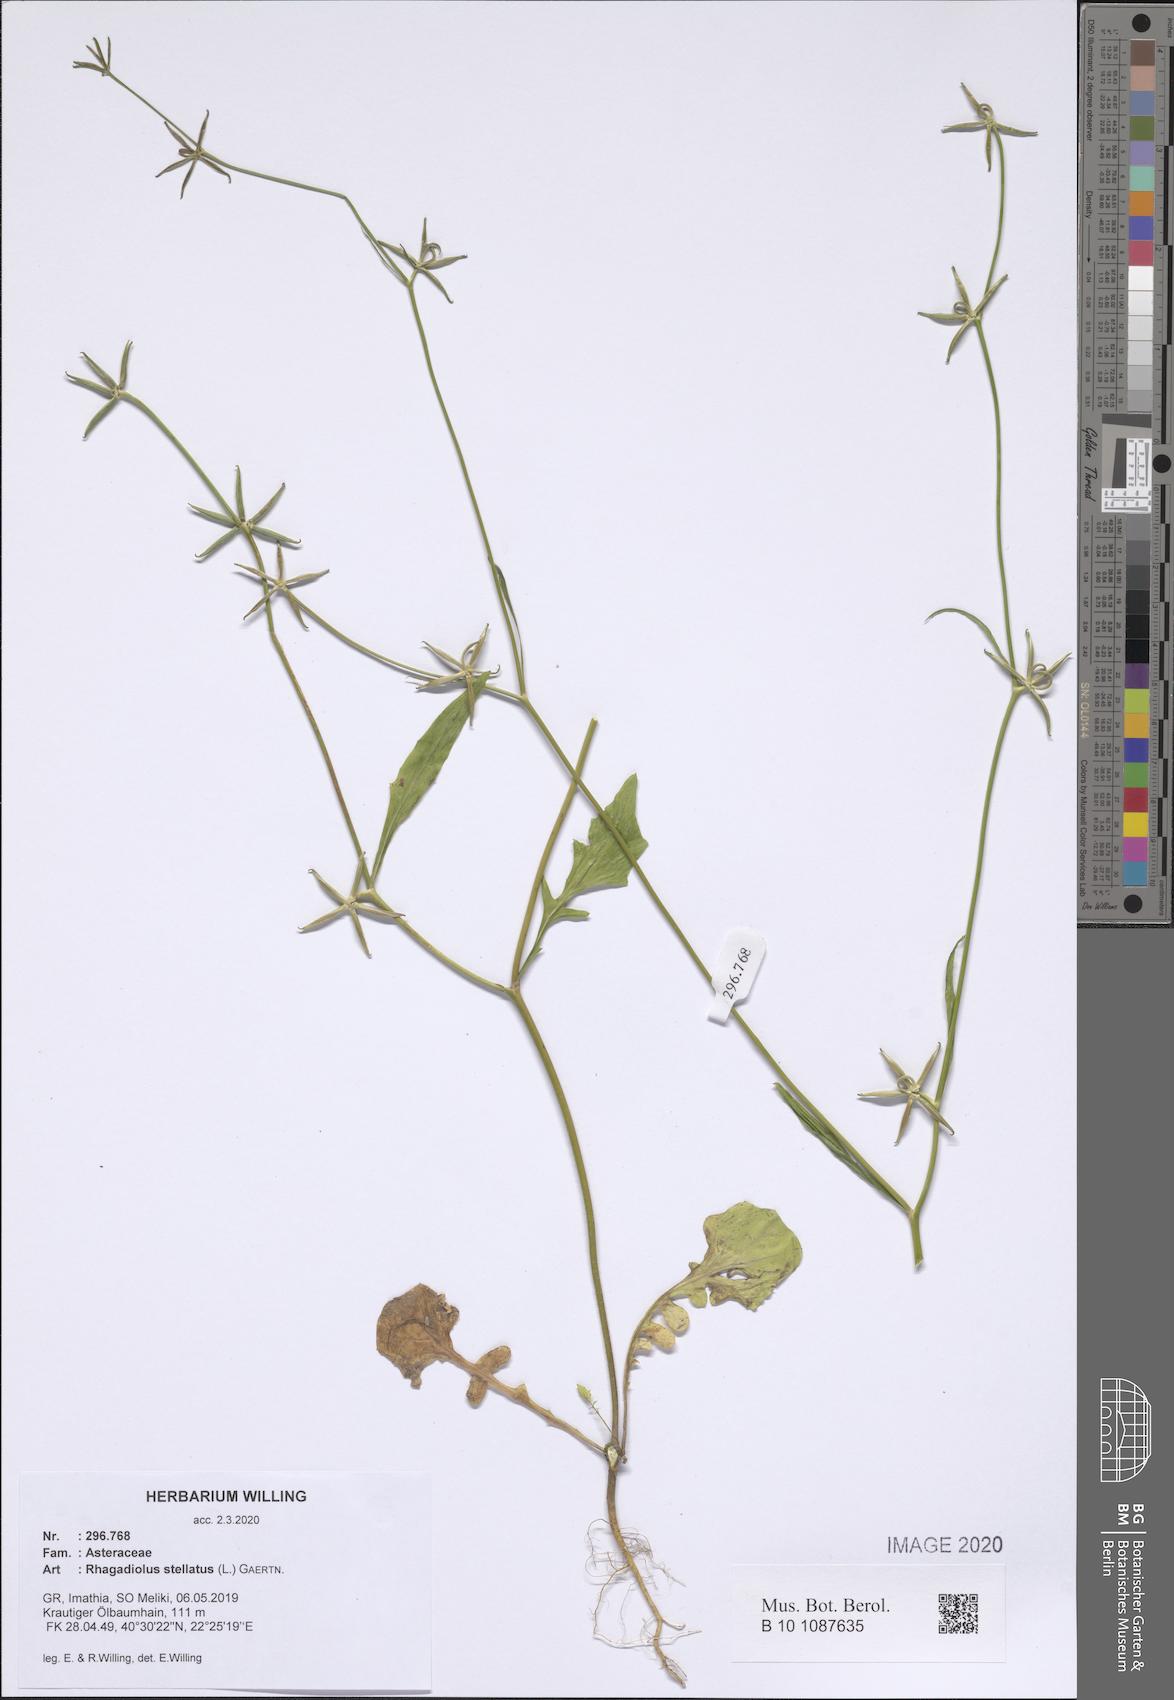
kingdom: Plantae
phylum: Tracheophyta
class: Magnoliopsida
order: Asterales
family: Asteraceae
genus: Rhagadiolus
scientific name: Rhagadiolus stellatus
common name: Star hawkbit
